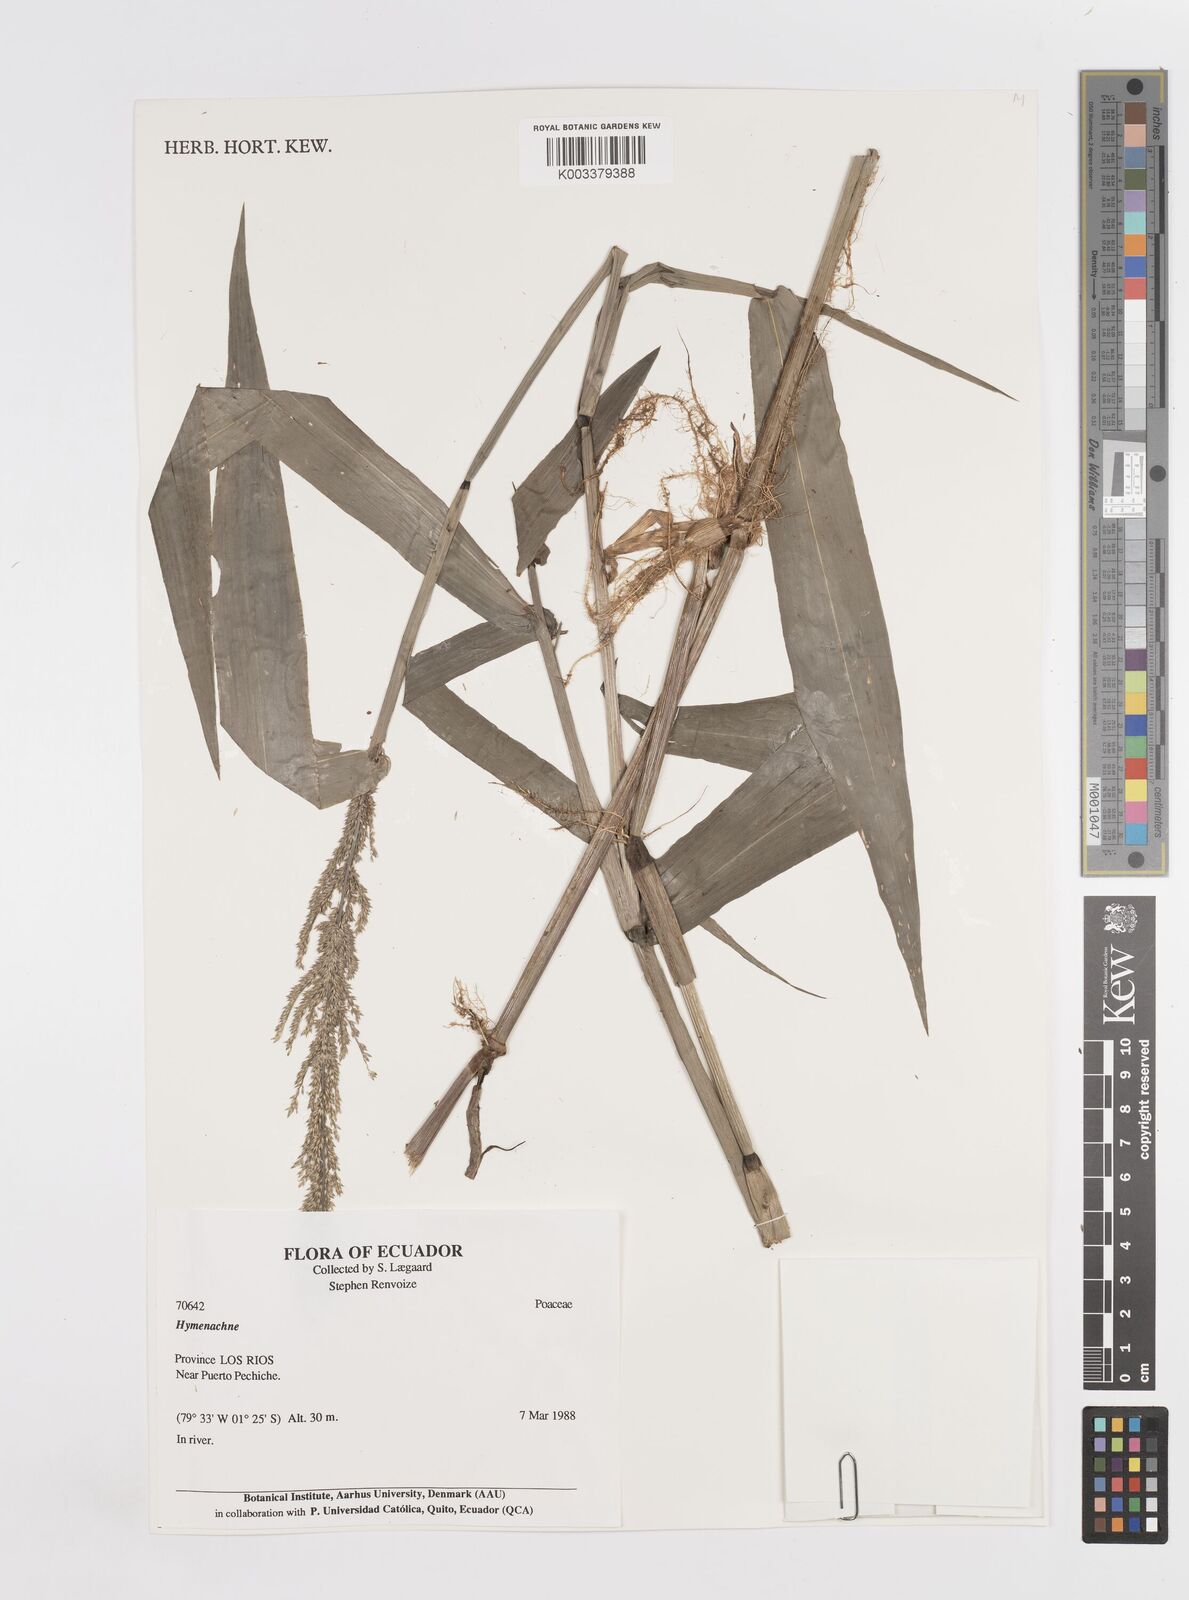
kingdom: Plantae
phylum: Tracheophyta
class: Liliopsida
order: Poales
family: Poaceae
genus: Hymenachne
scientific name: Hymenachne donacifolia
